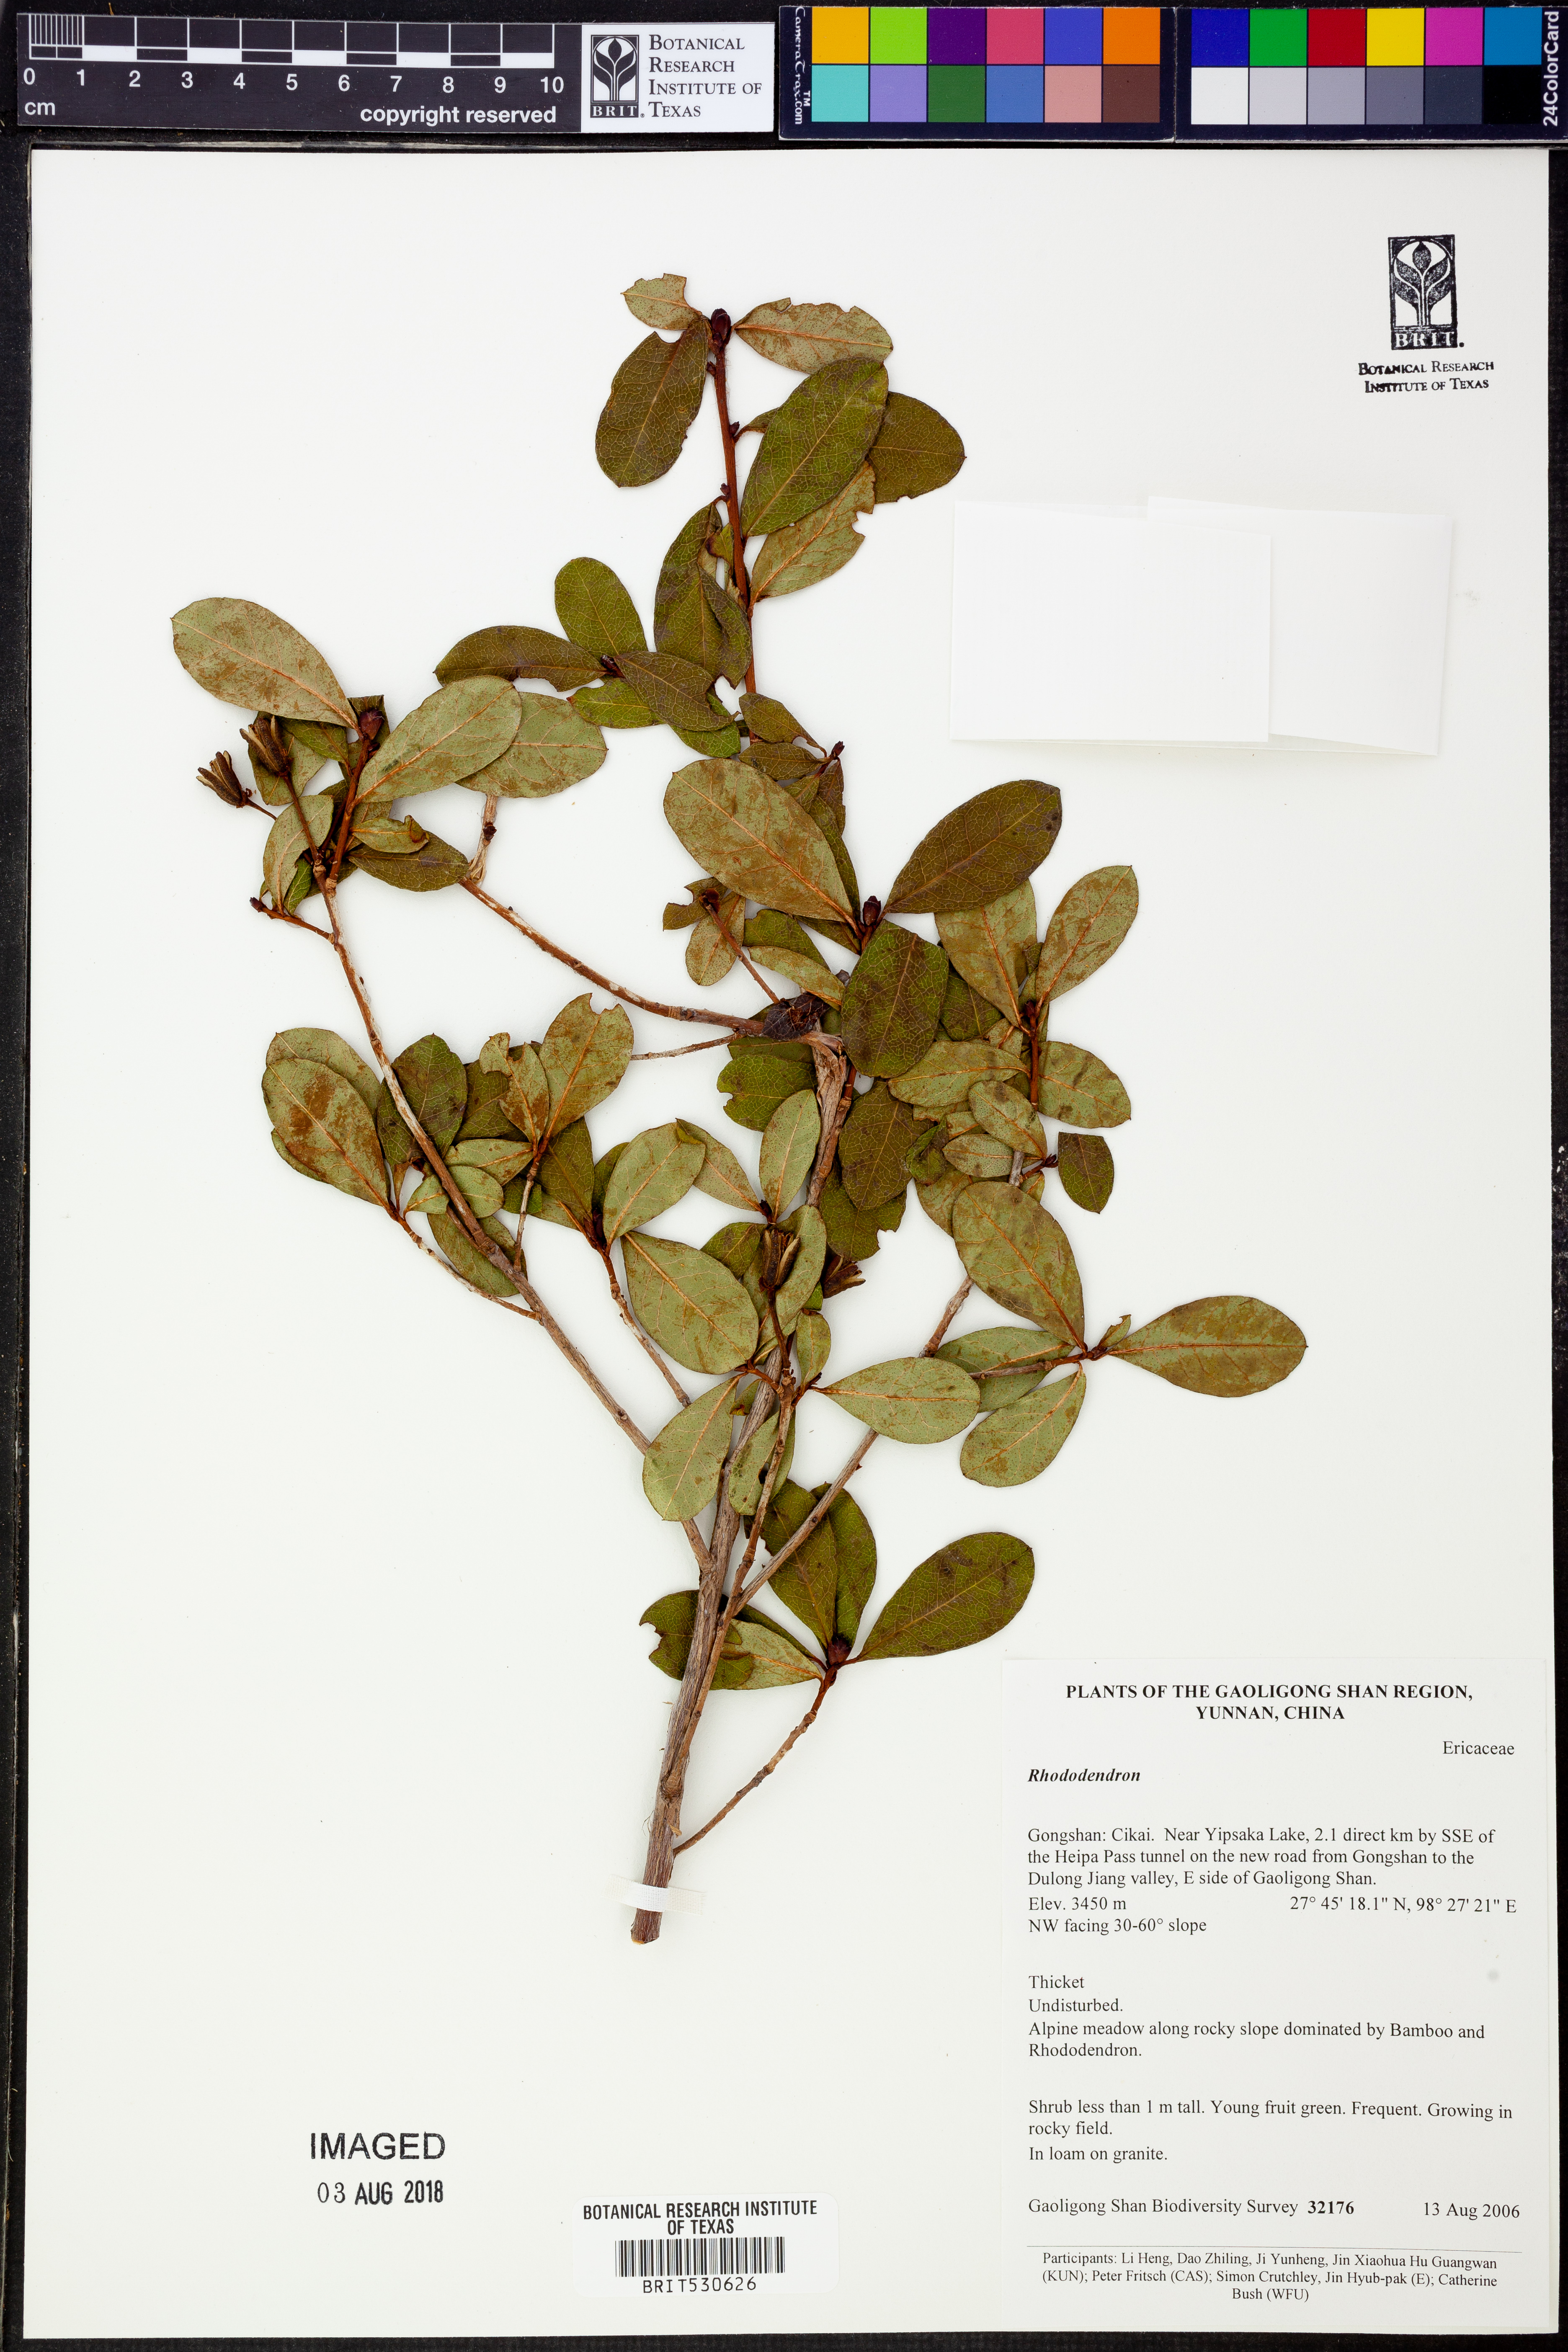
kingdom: Plantae
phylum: Tracheophyta
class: Magnoliopsida
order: Ericales
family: Ericaceae
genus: Rhododendron
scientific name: Rhododendron
